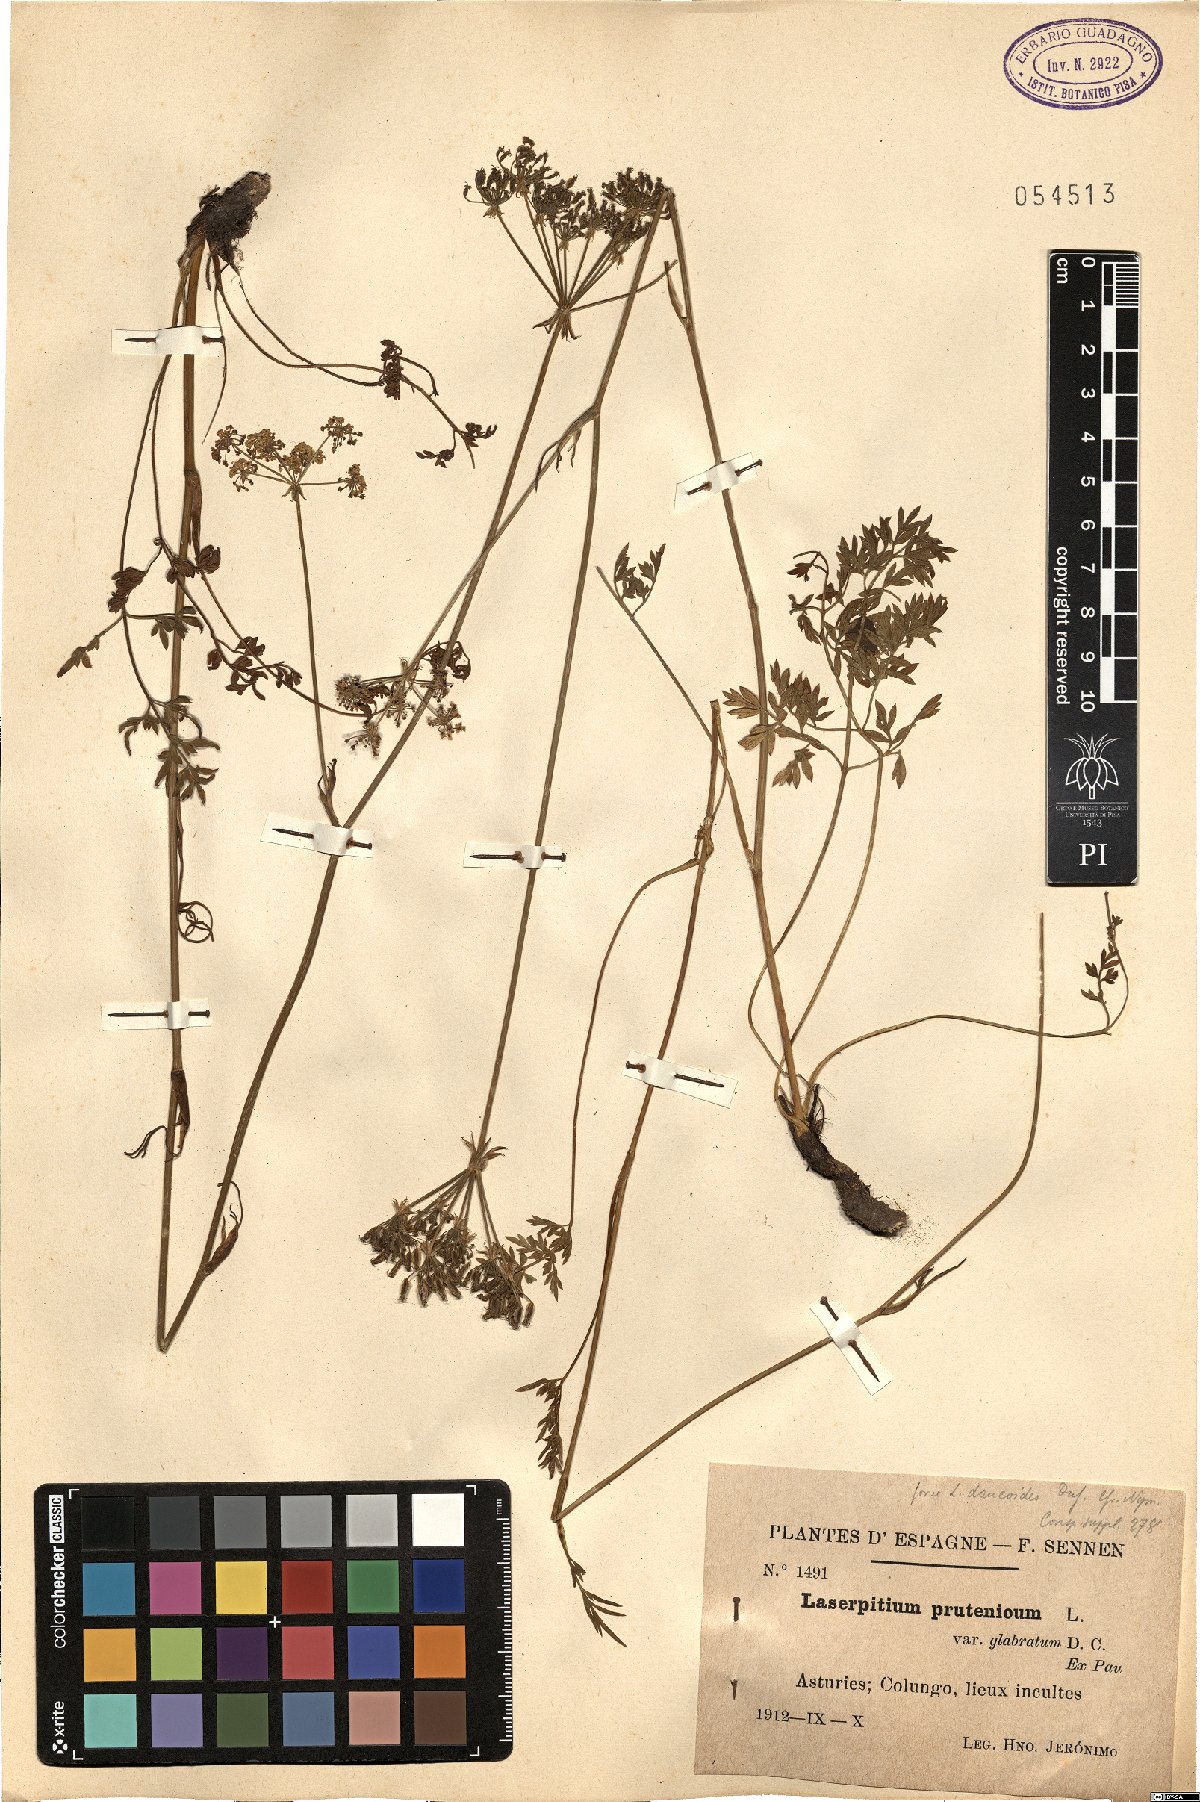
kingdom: Plantae
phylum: Tracheophyta
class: Magnoliopsida
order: Apiales
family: Apiaceae
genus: Silphiodaucus
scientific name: Silphiodaucus prutenicus
